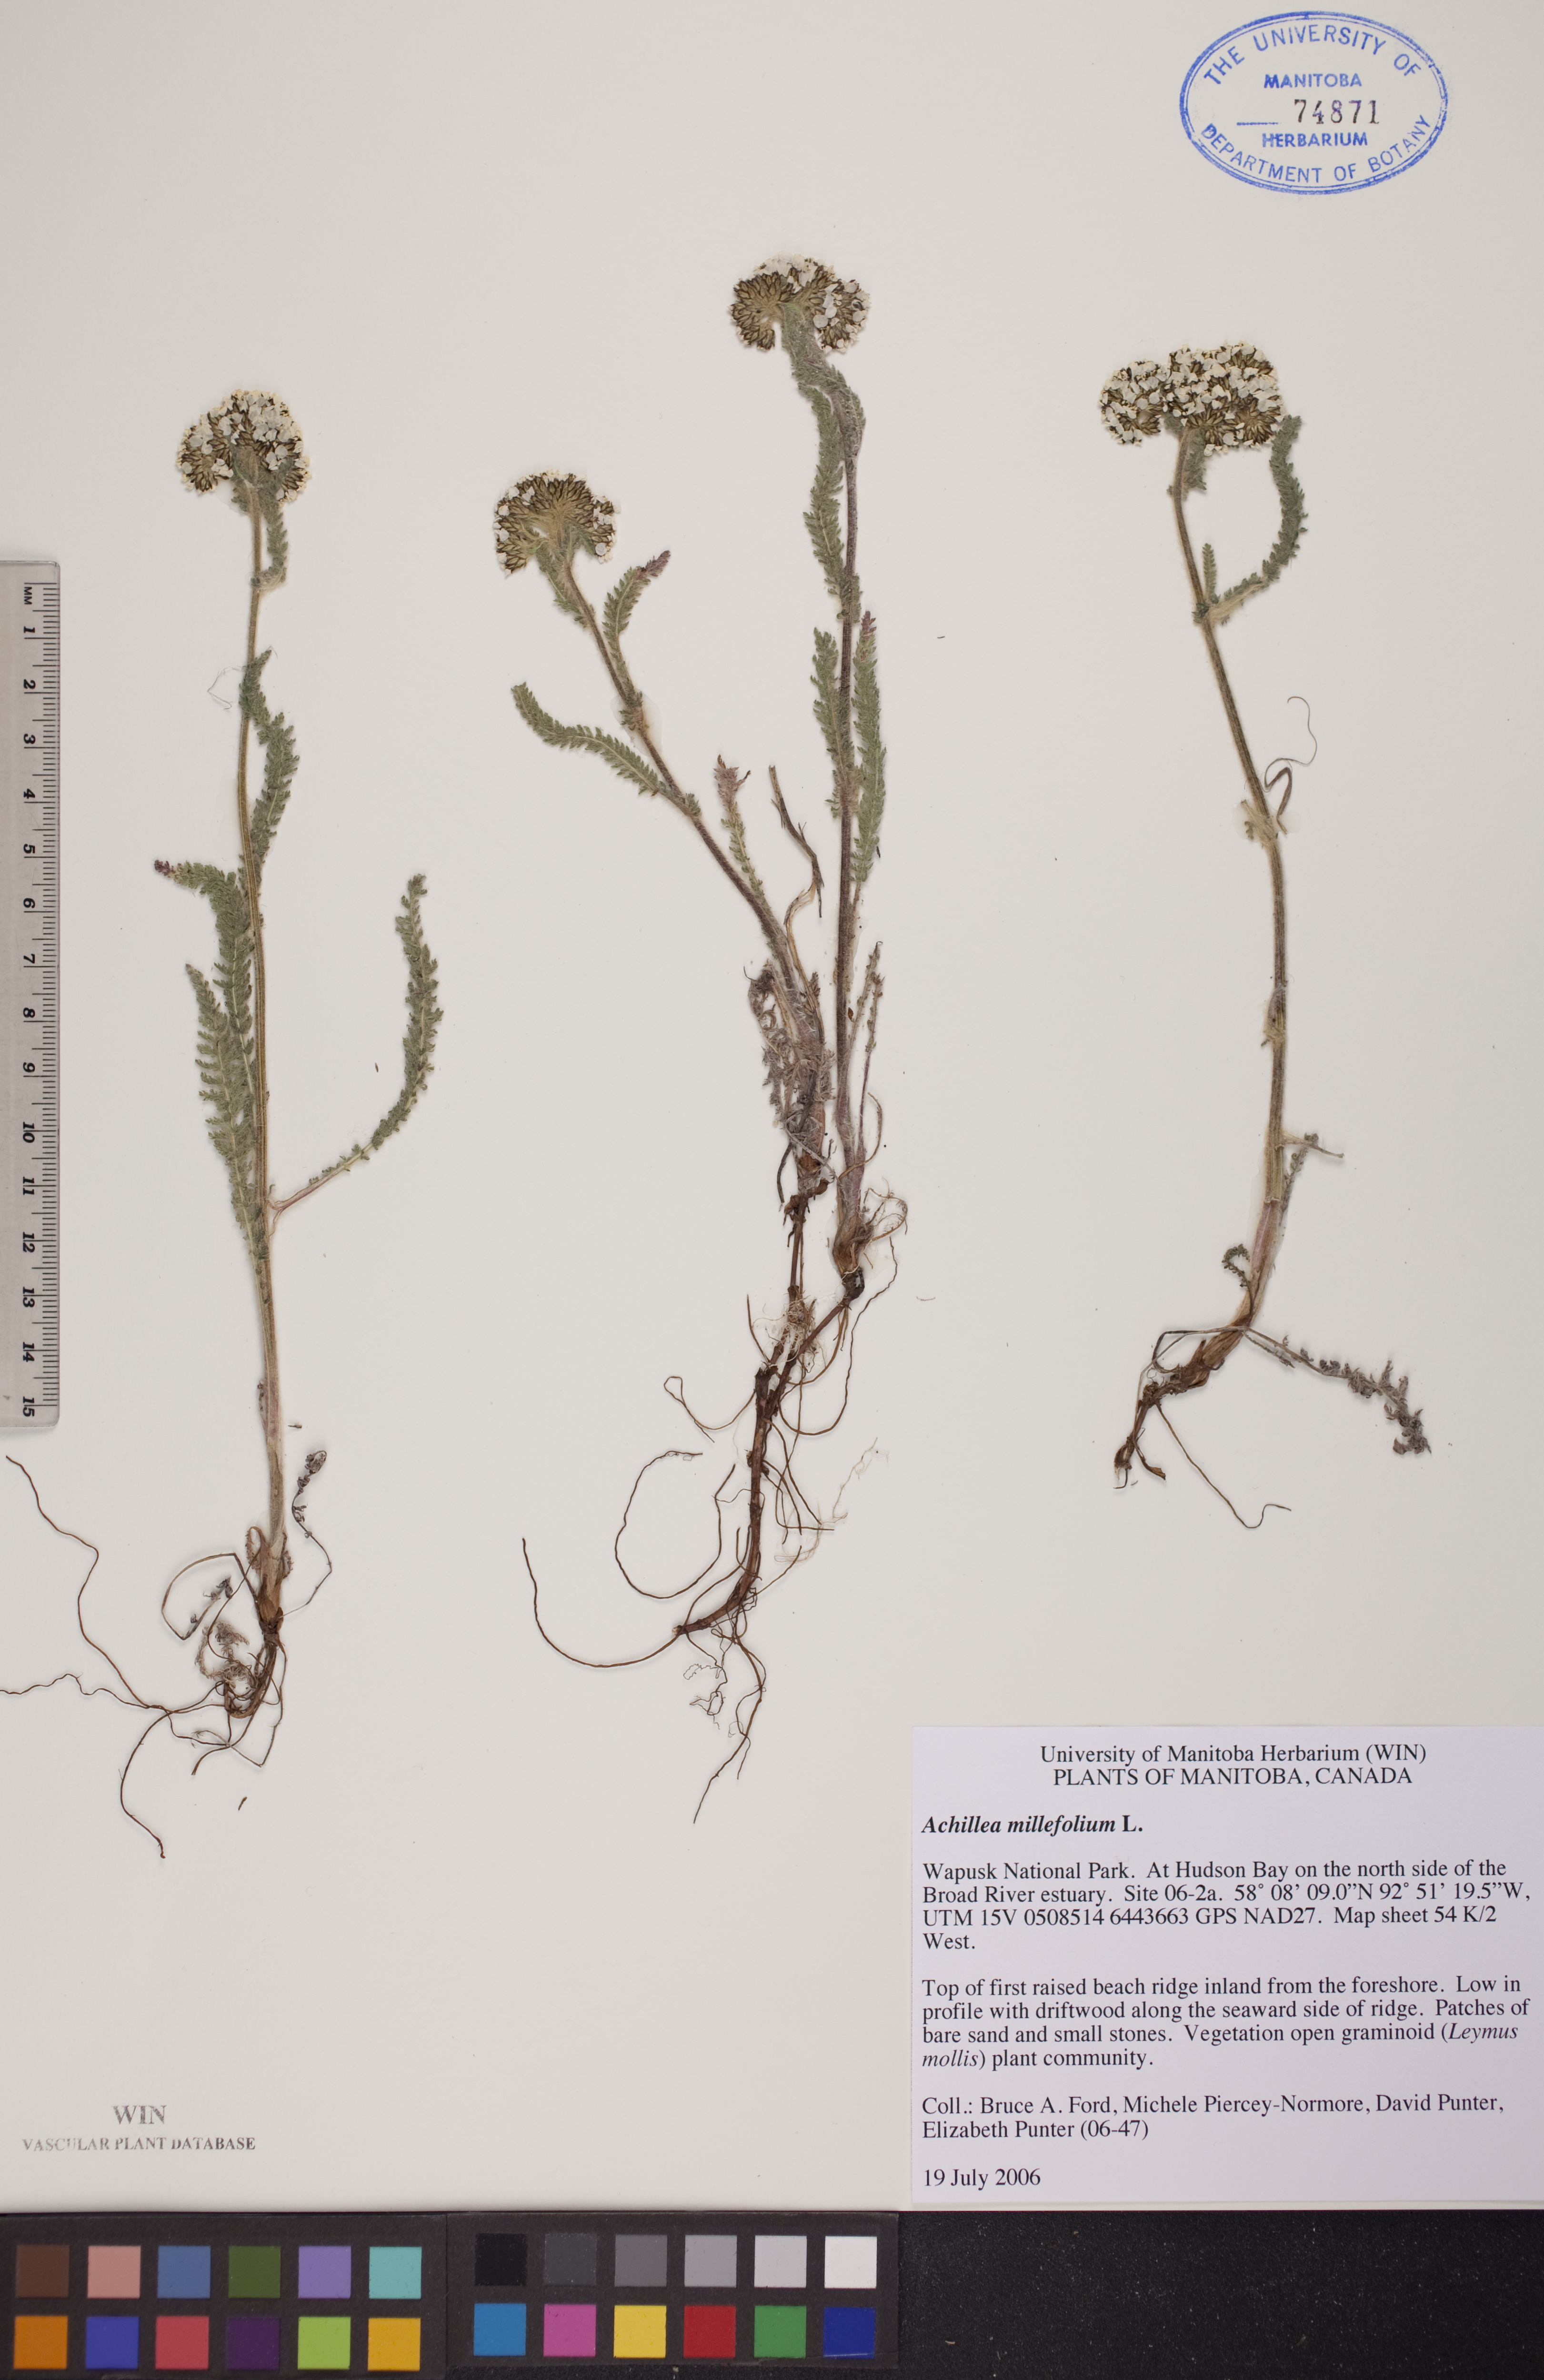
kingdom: Plantae
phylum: Tracheophyta
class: Magnoliopsida
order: Asterales
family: Asteraceae
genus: Achillea
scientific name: Achillea millefolium
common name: Yarrow
